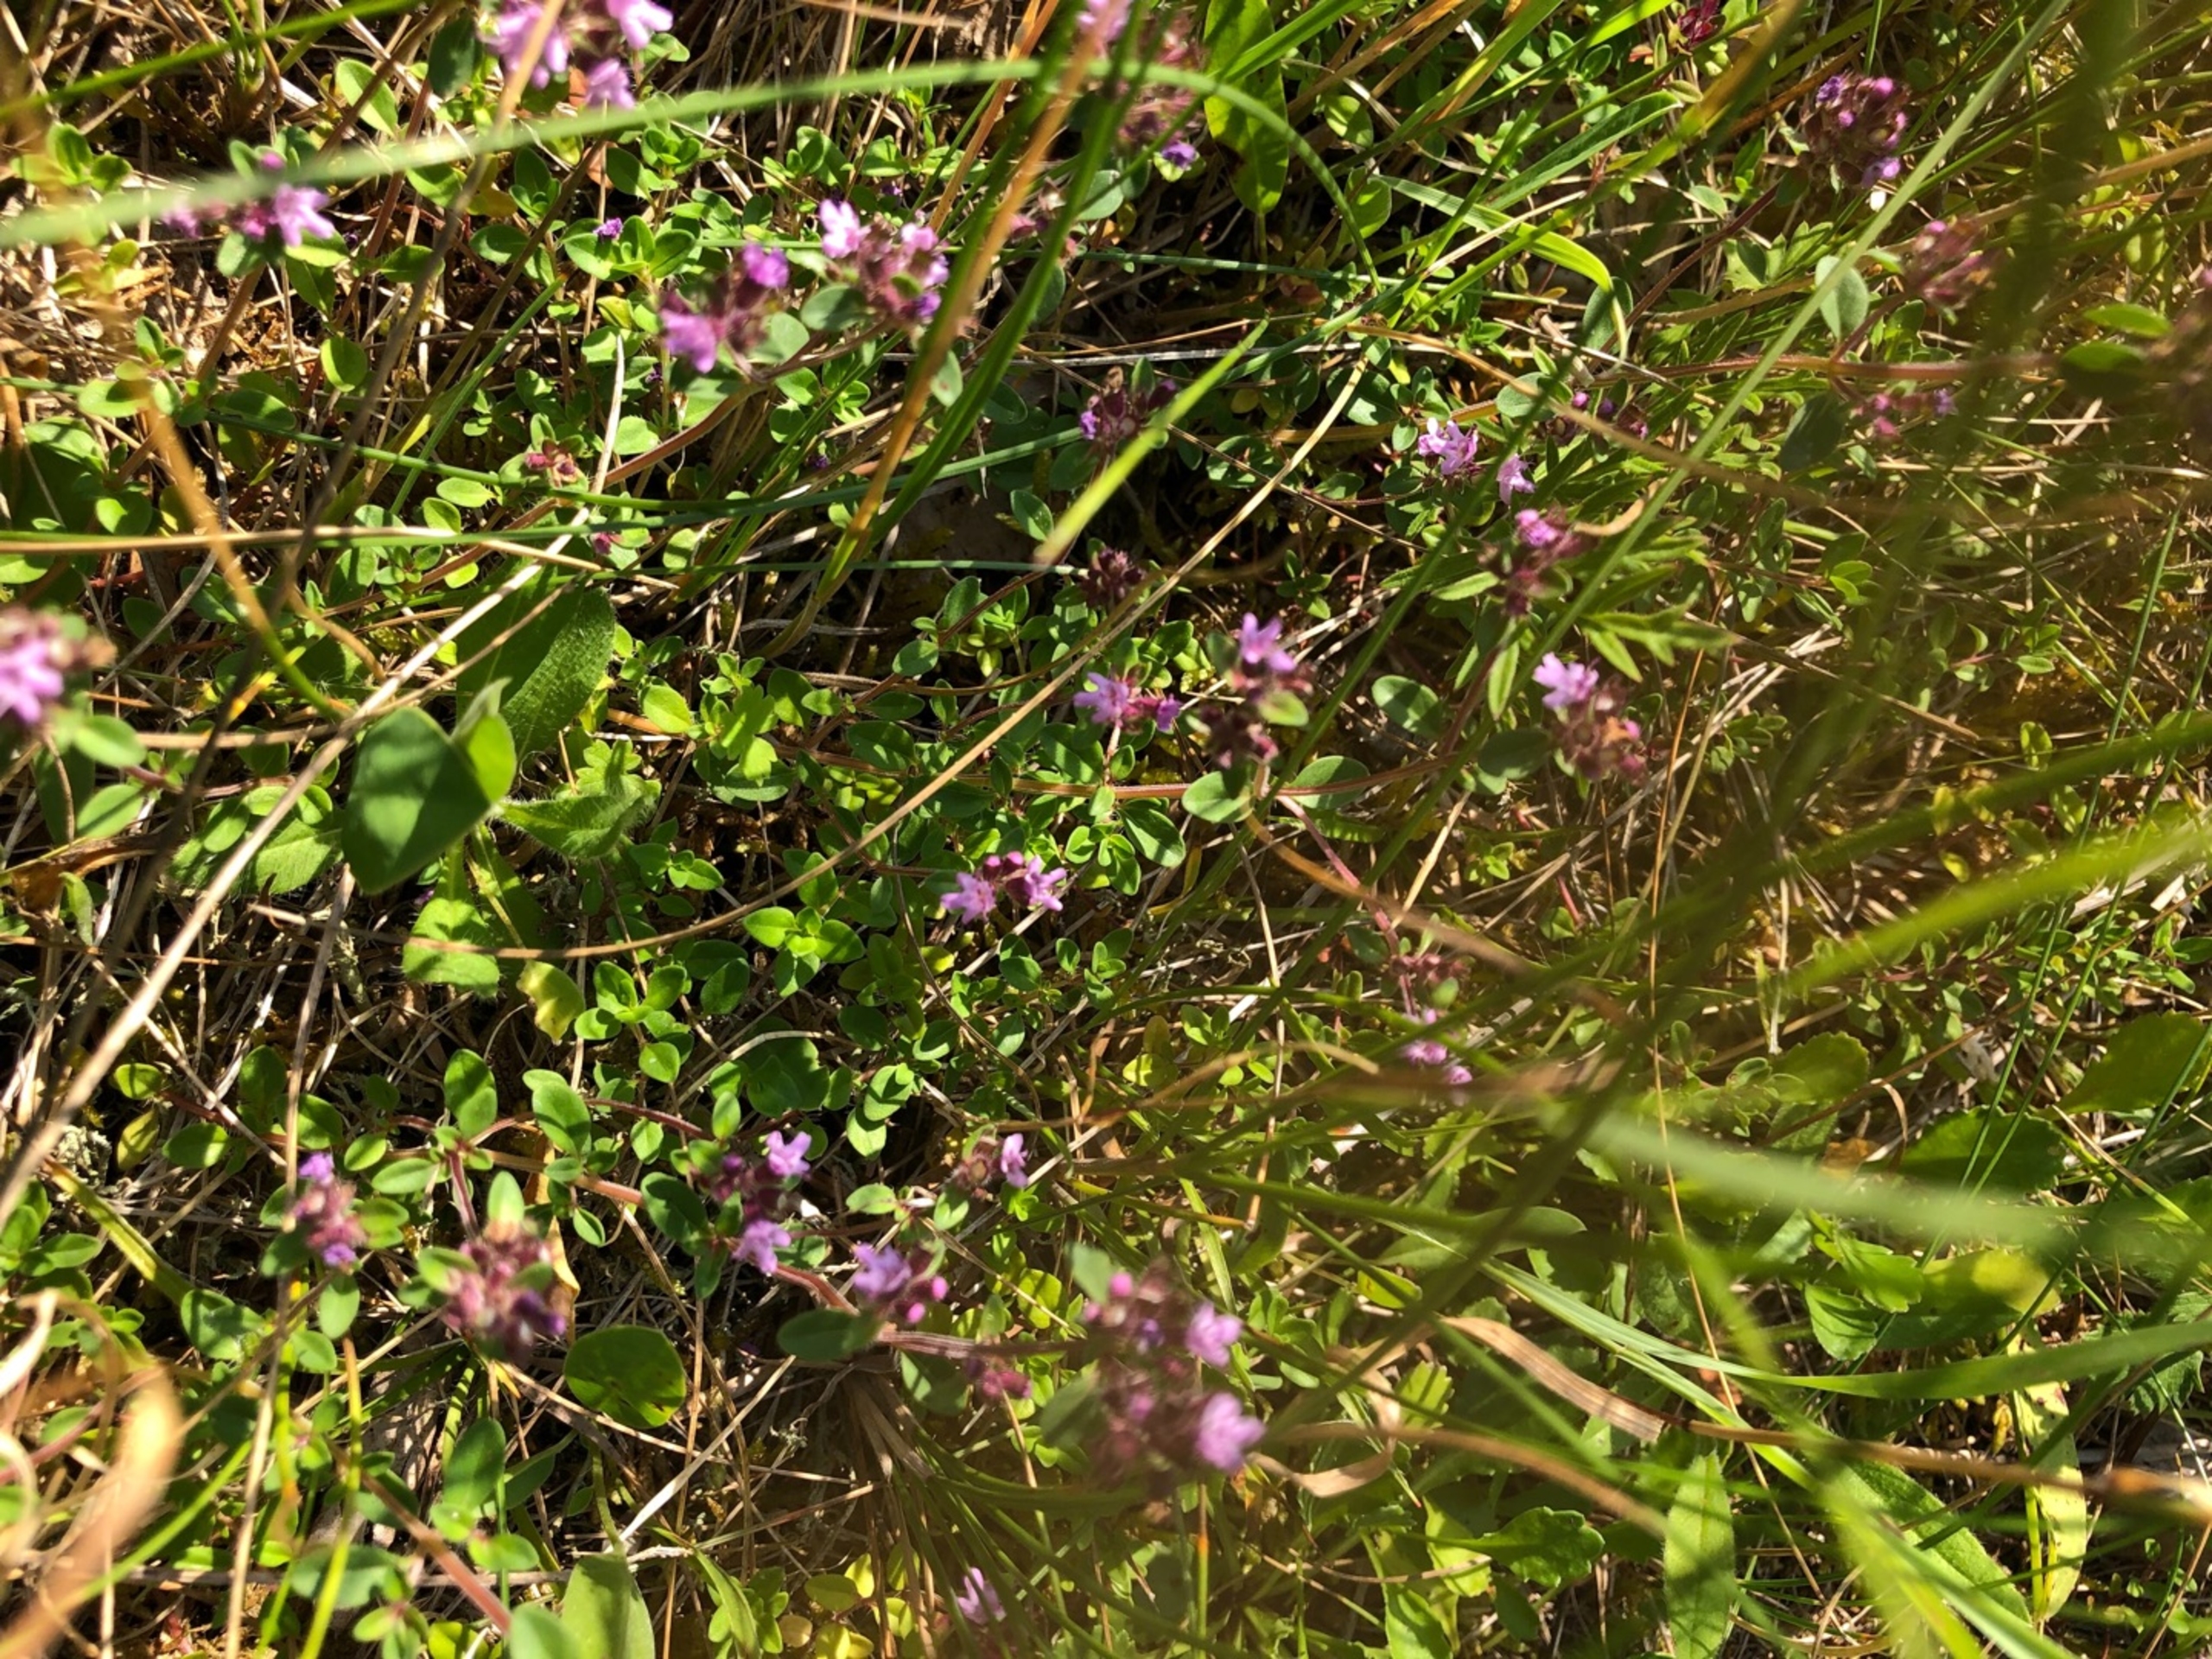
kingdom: Plantae
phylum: Tracheophyta
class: Magnoliopsida
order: Lamiales
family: Lamiaceae
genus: Thymus
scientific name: Thymus pulegioides
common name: Bredbladet timian
